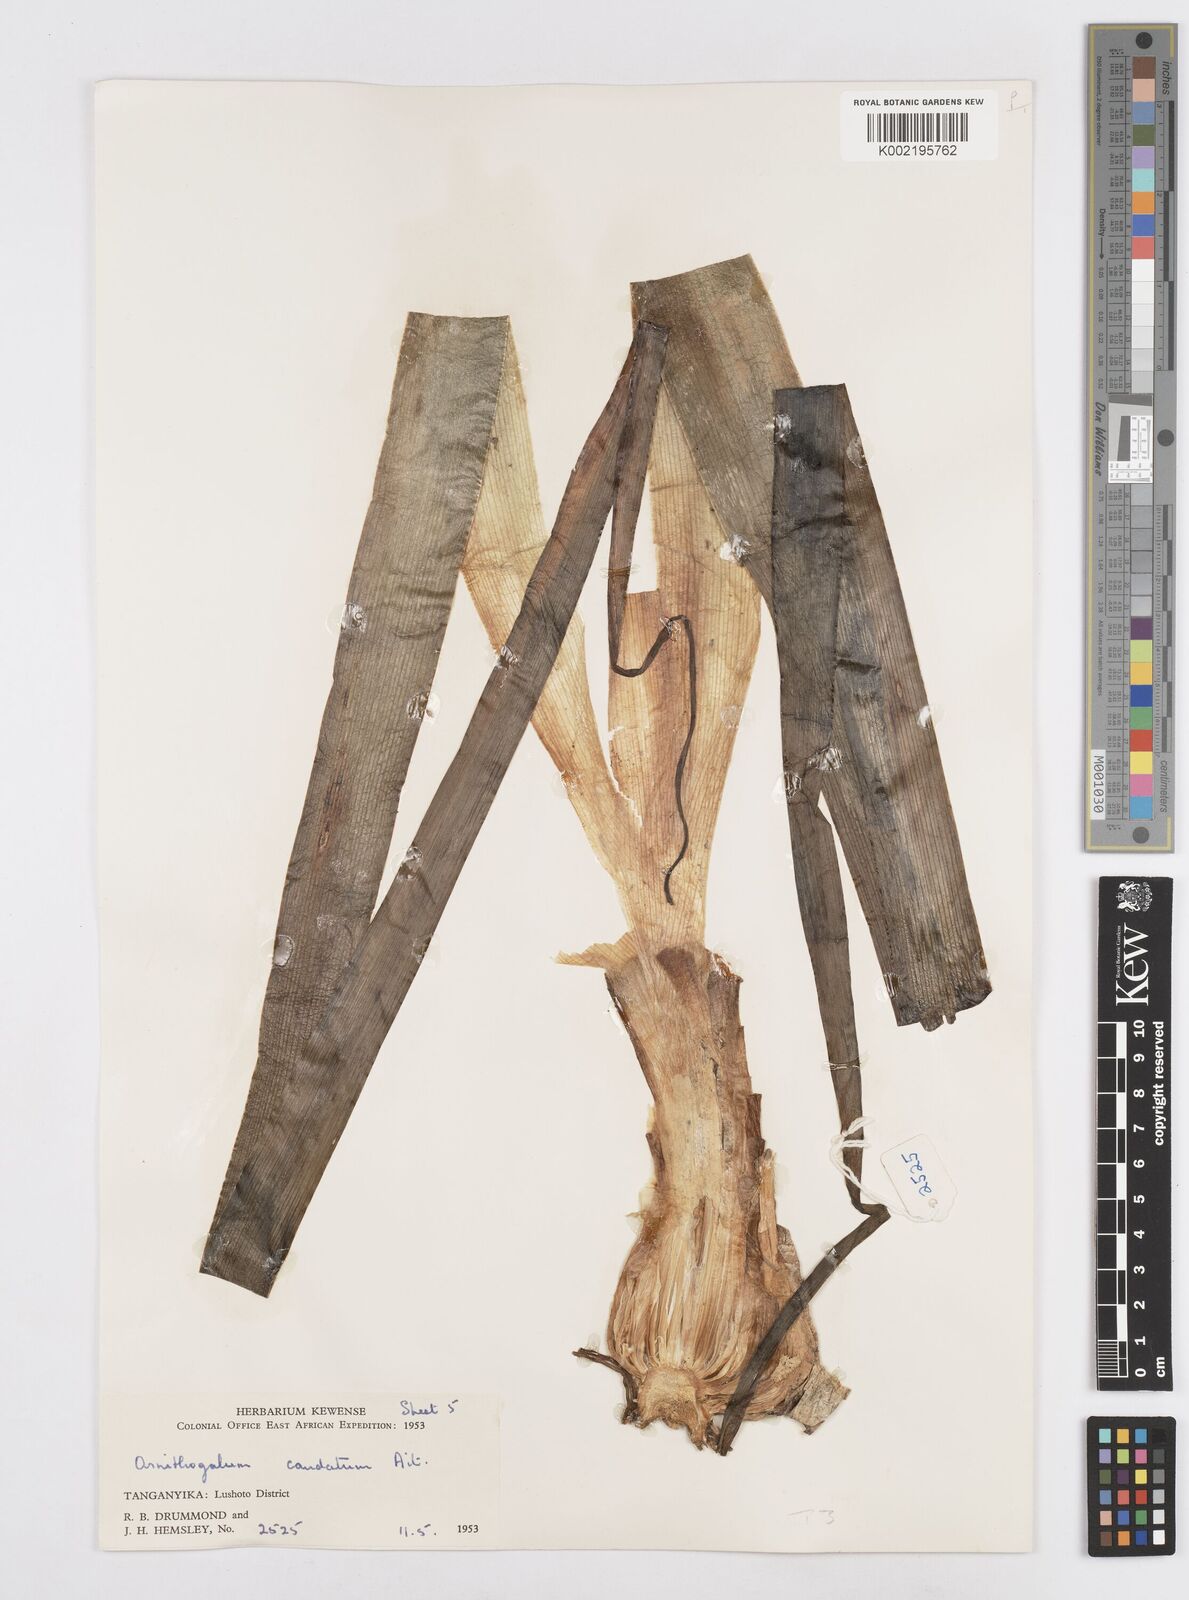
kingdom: Plantae
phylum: Tracheophyta
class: Liliopsida
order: Asparagales
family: Asparagaceae
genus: Albuca
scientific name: Albuca virens
